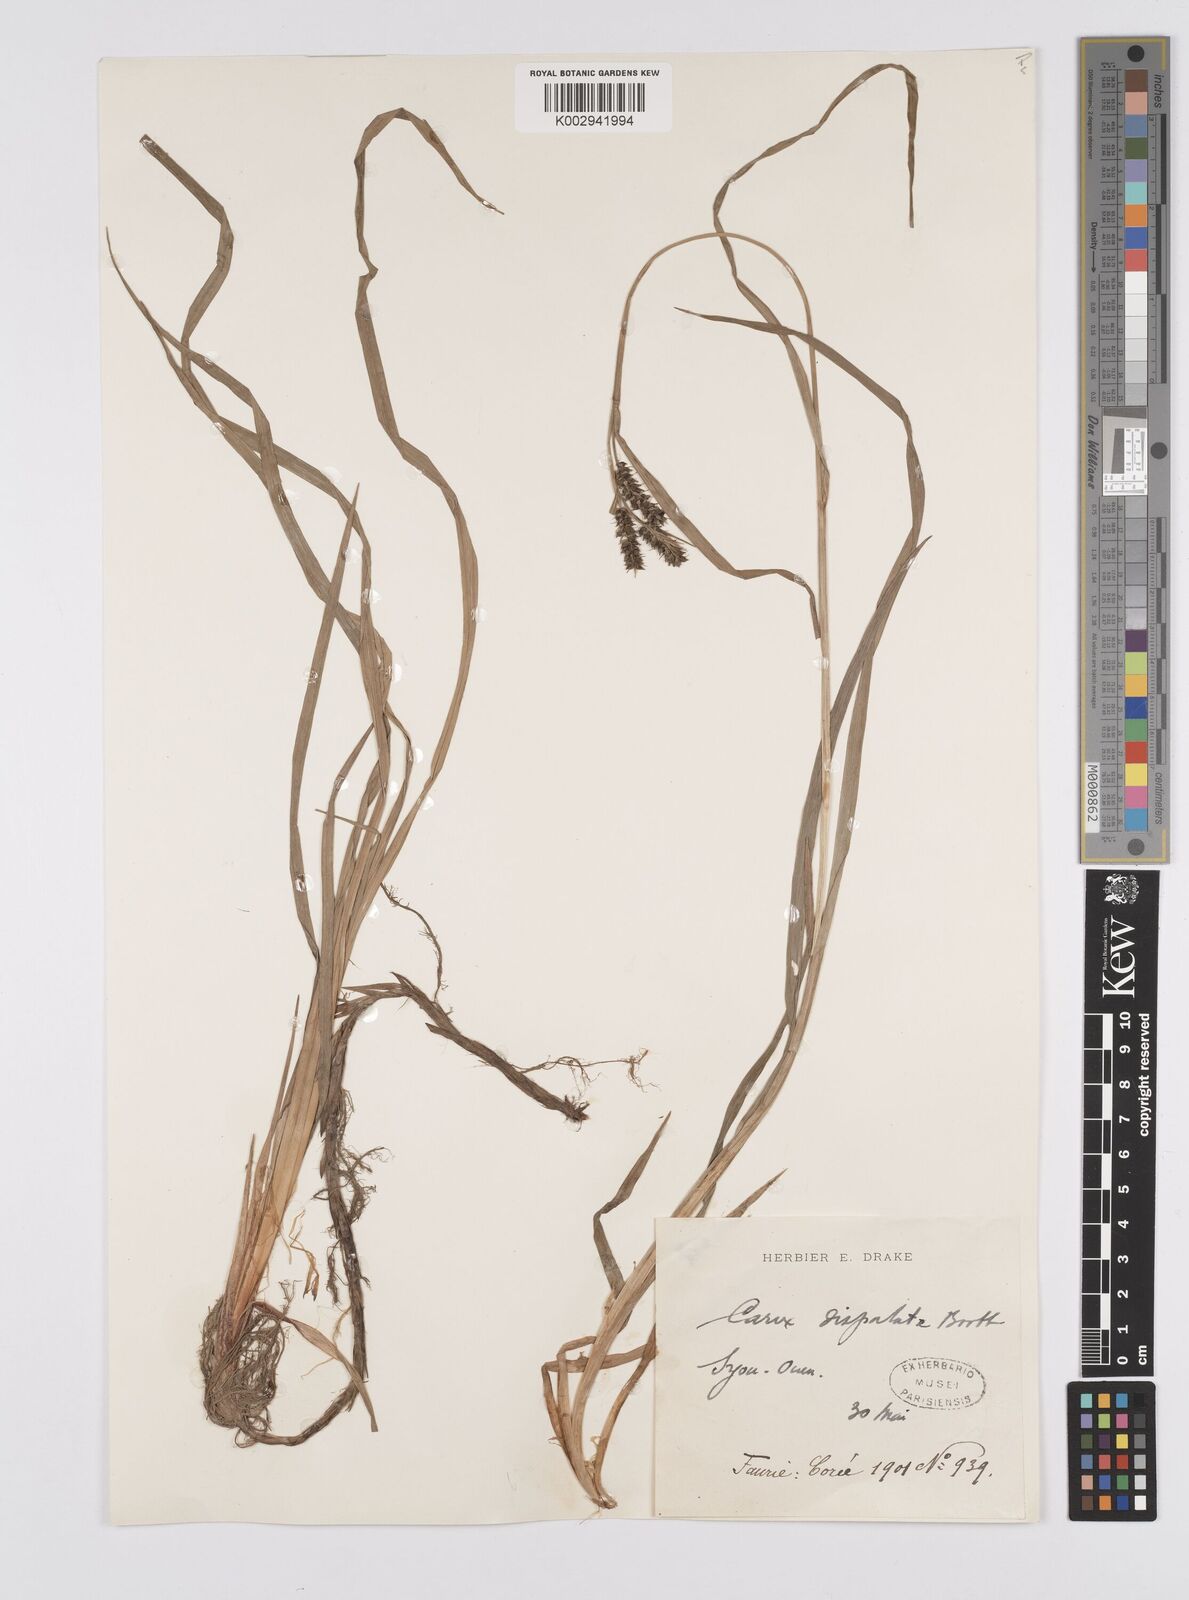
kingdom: Plantae
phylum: Tracheophyta
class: Liliopsida
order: Poales
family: Cyperaceae
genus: Carex
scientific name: Carex dispalata
